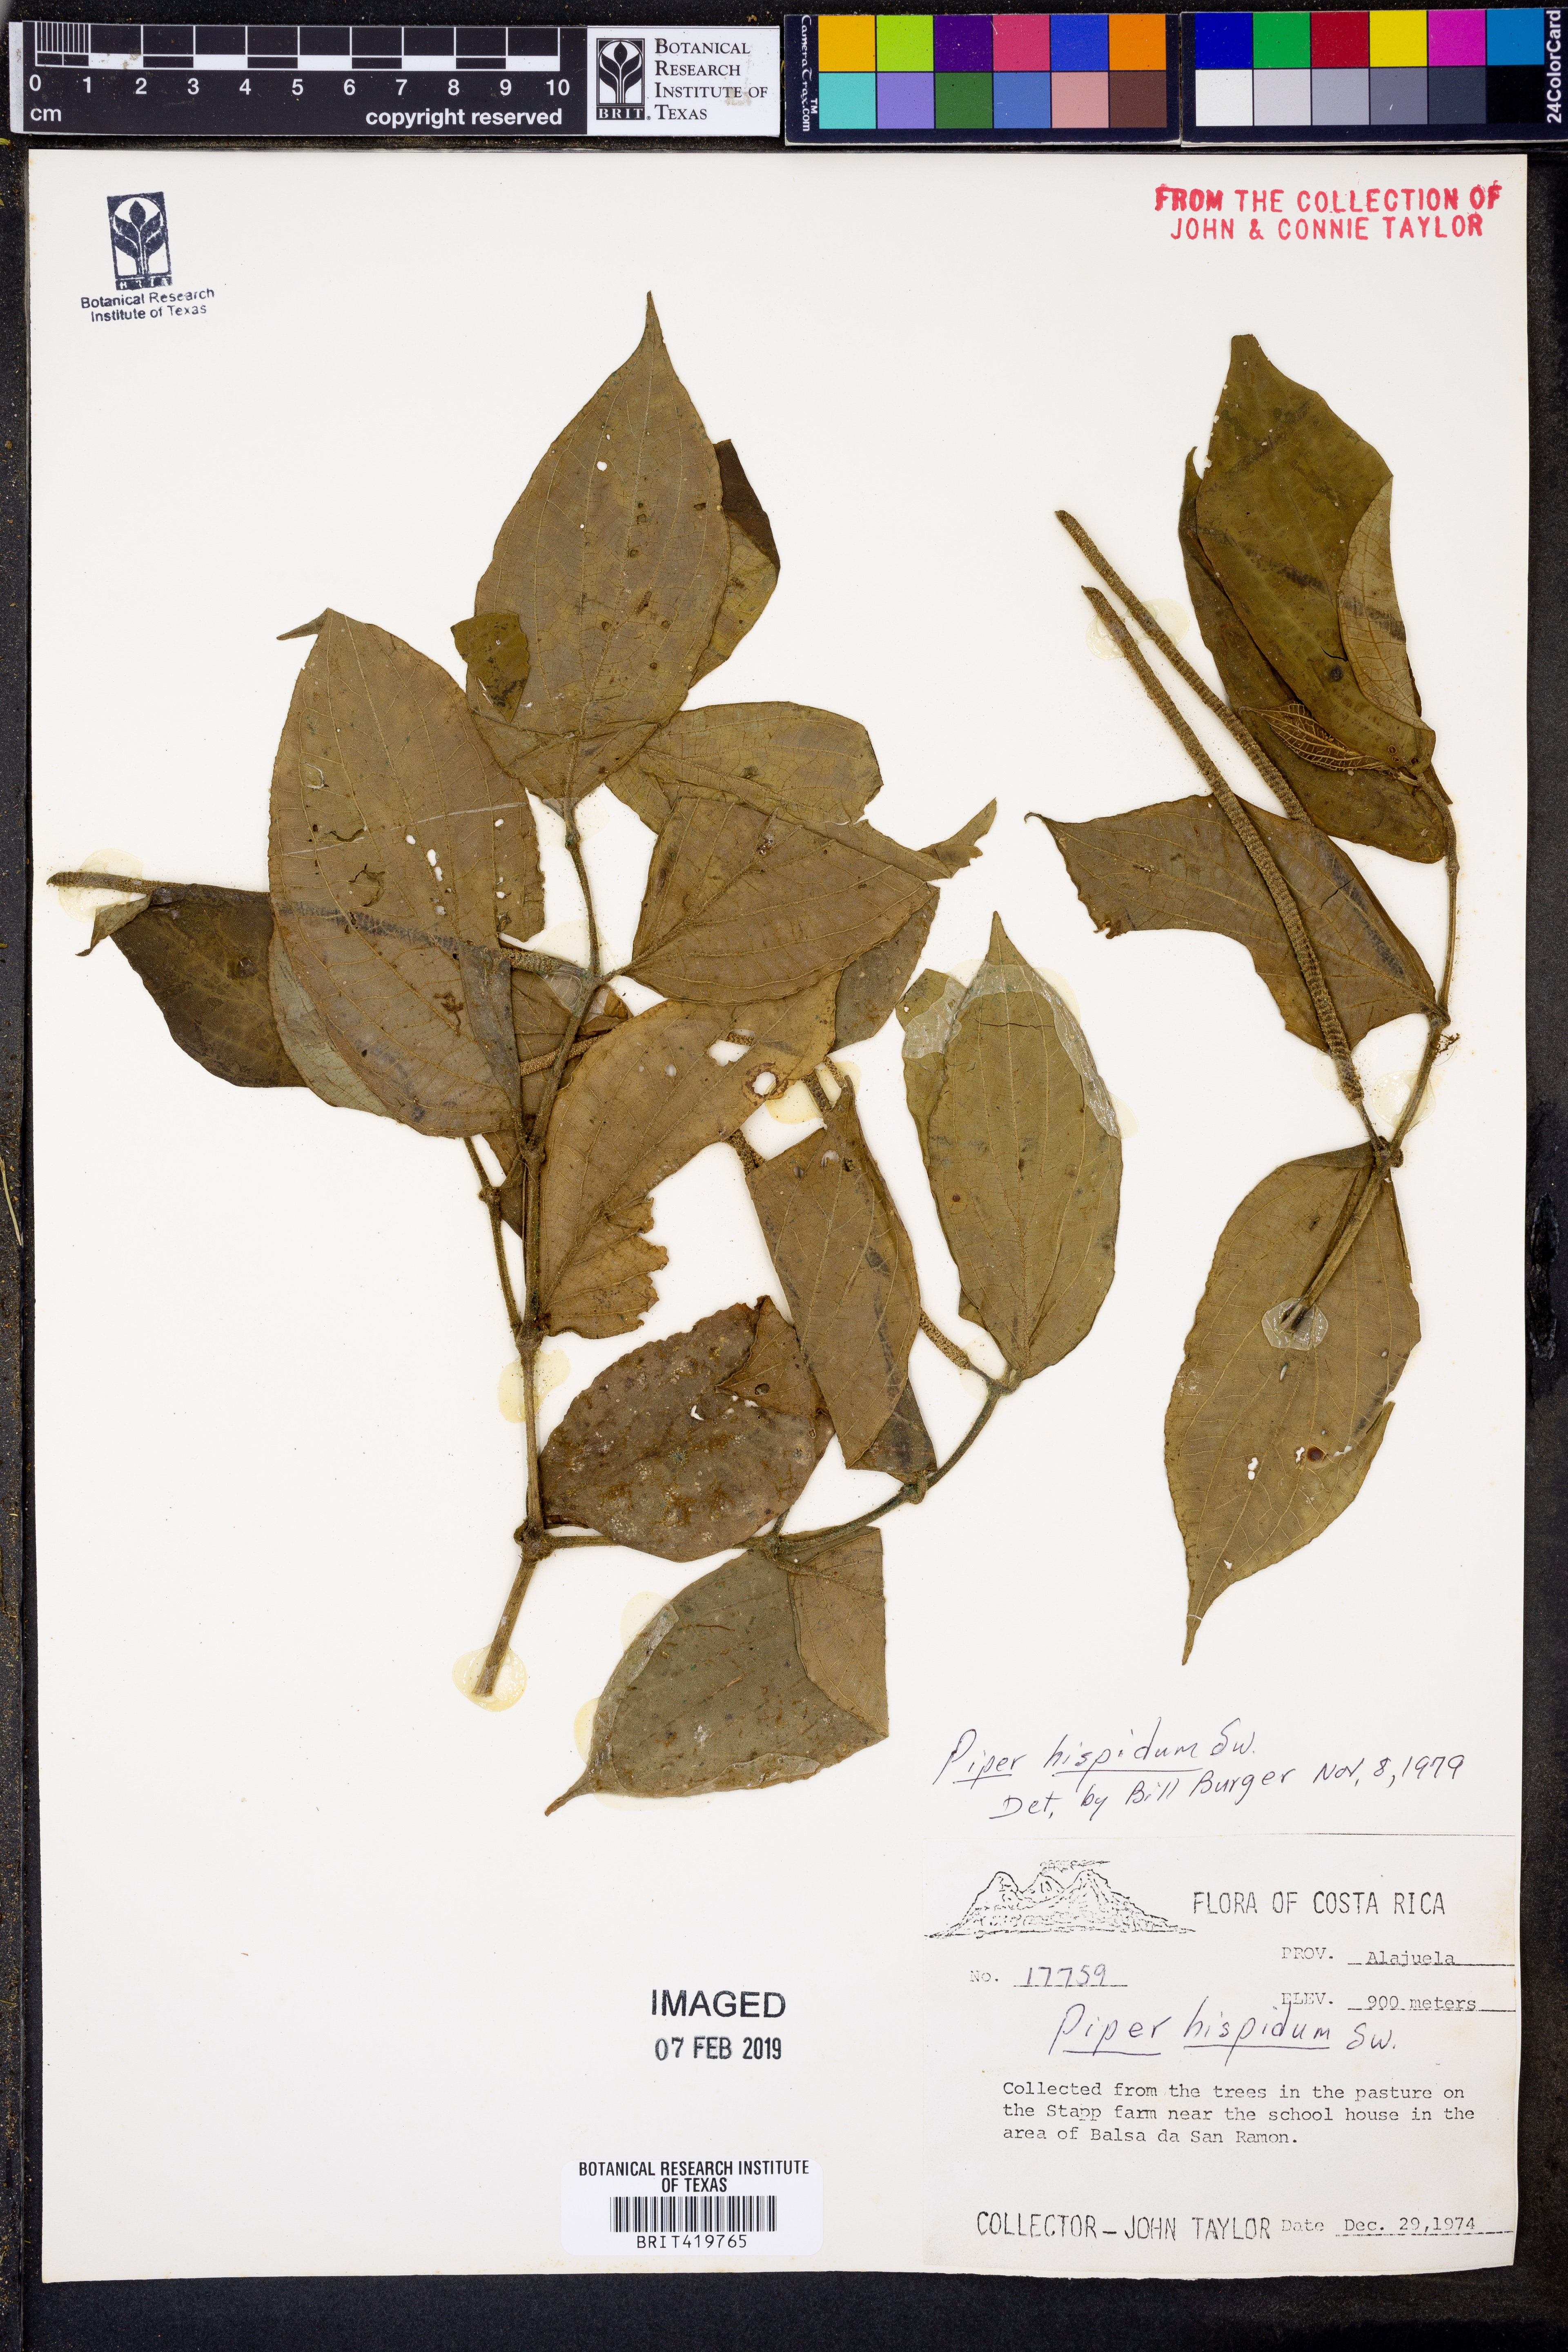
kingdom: Plantae
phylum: Tracheophyta
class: Magnoliopsida
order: Piperales
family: Piperaceae
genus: Piper
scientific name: Piper hispidum
